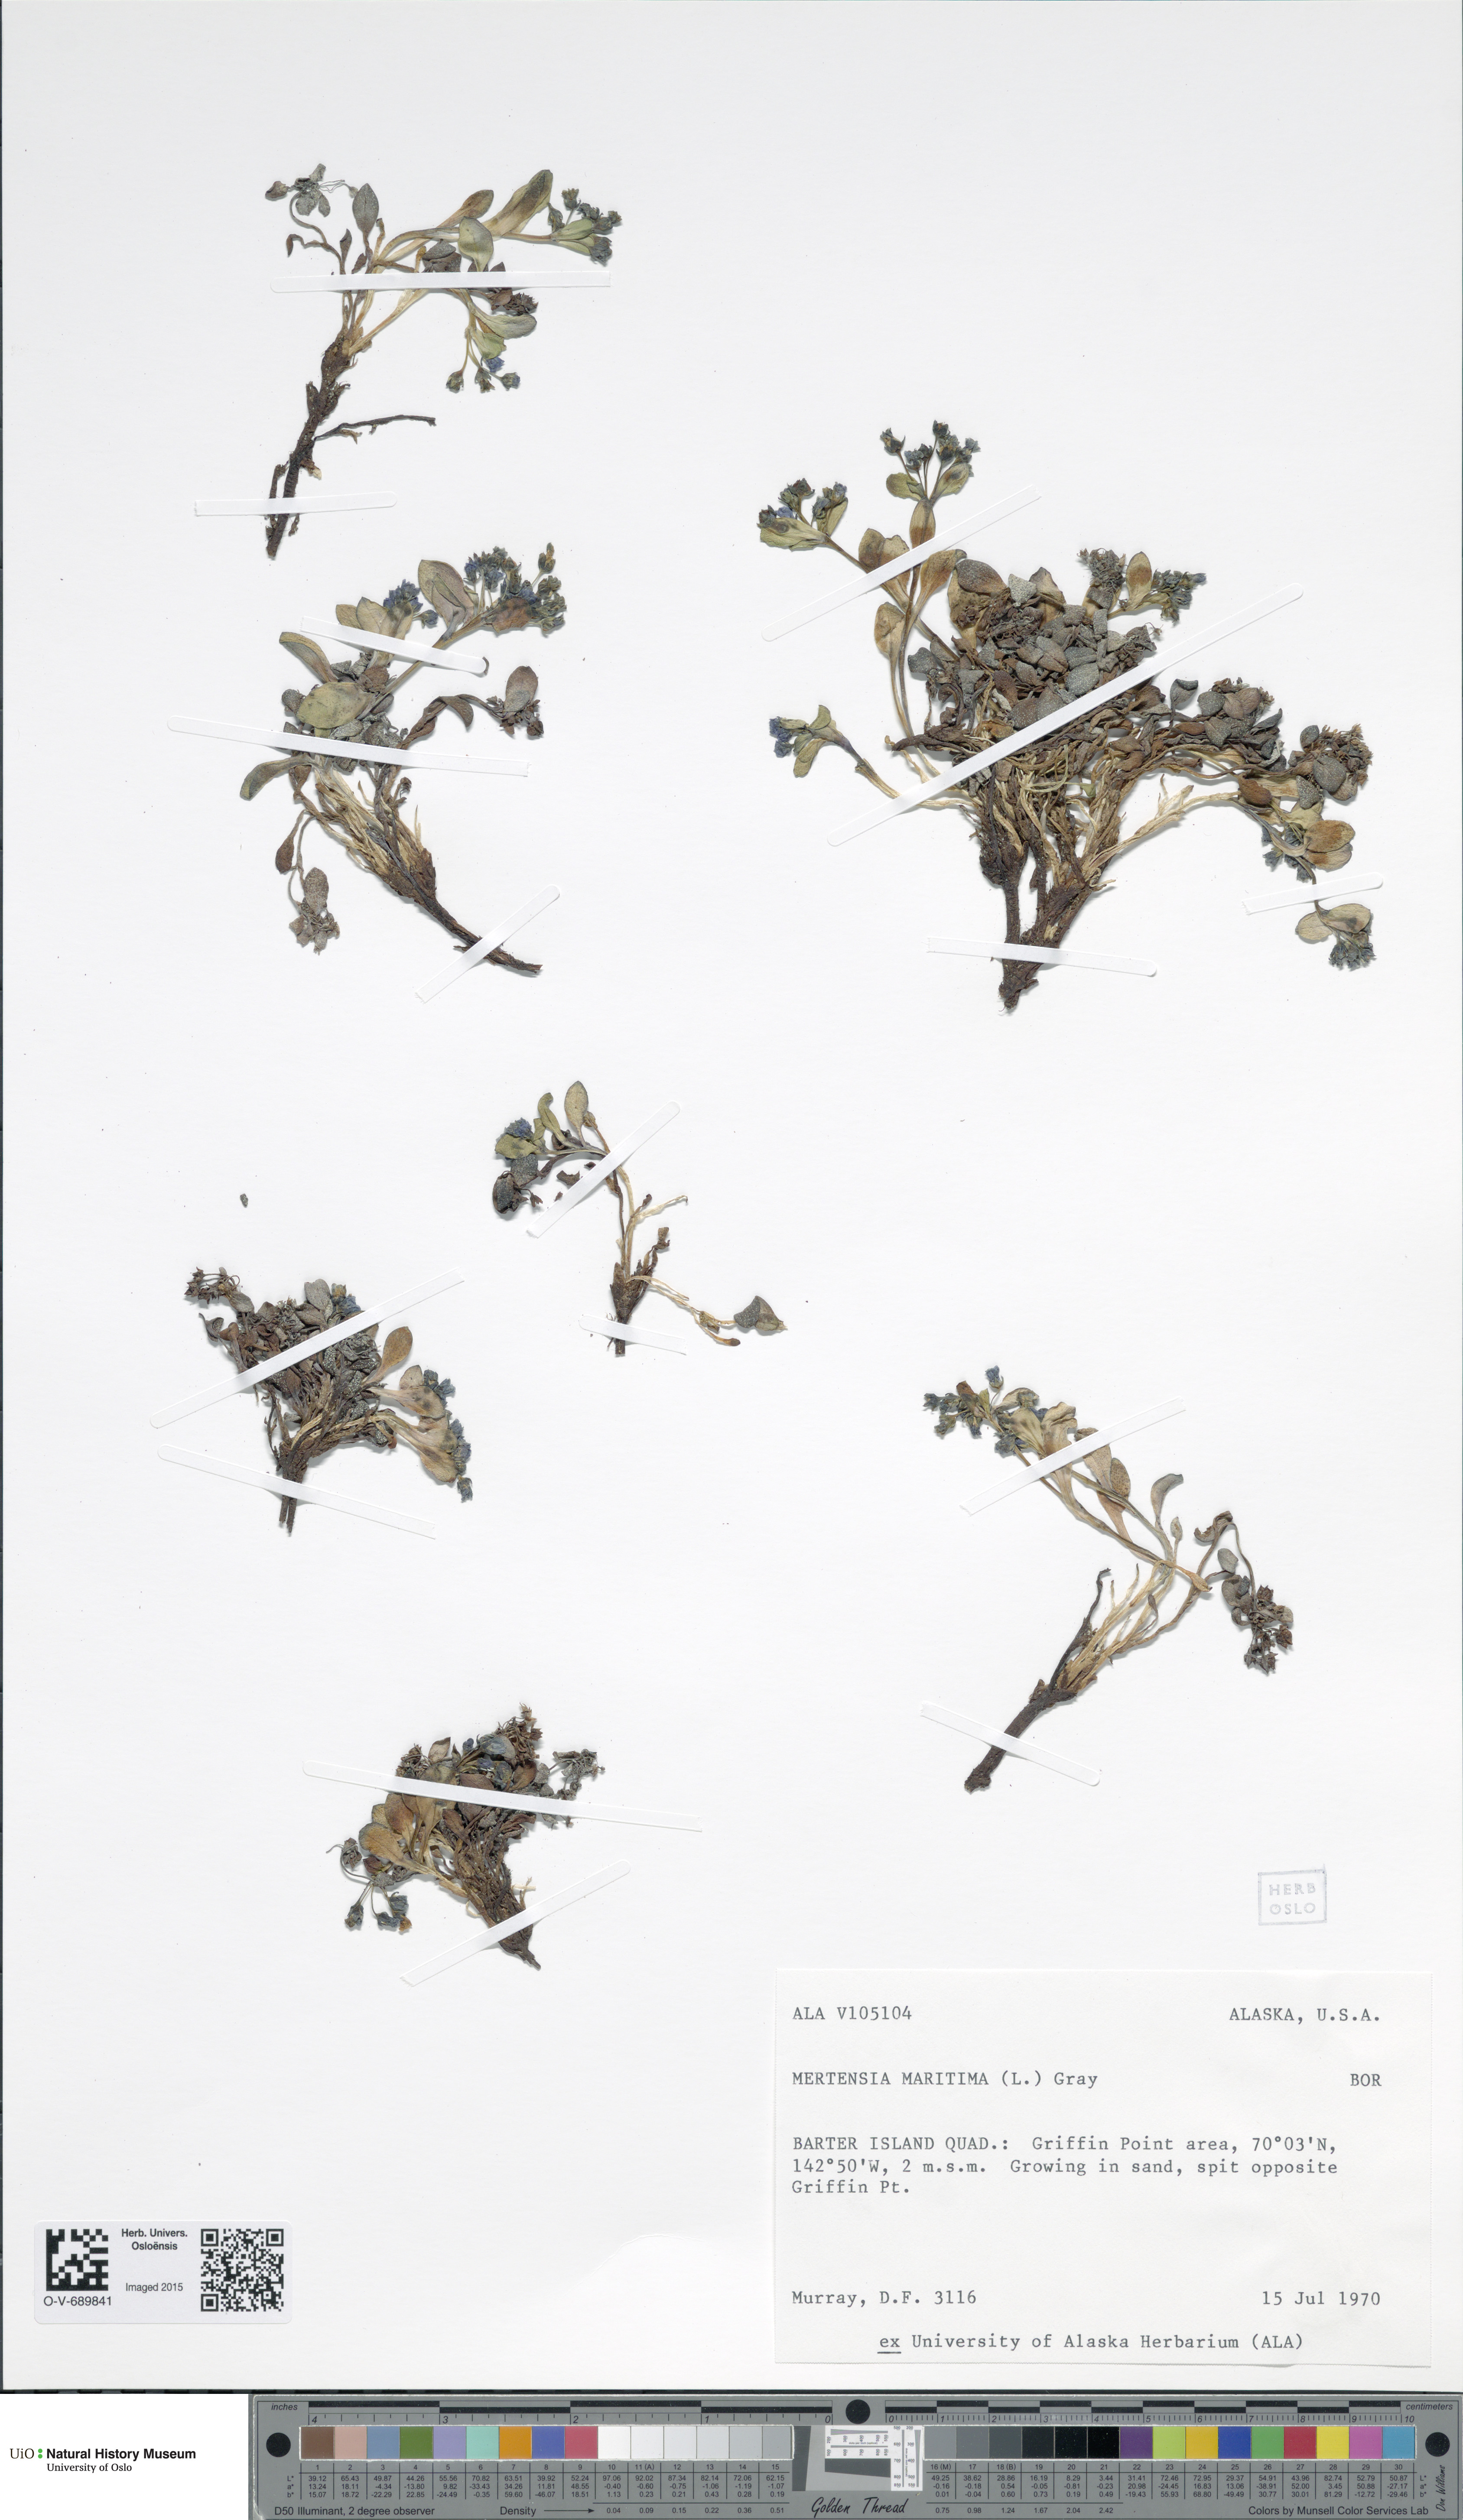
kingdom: Plantae
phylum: Tracheophyta
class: Magnoliopsida
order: Boraginales
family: Boraginaceae
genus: Mertensia
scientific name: Mertensia maritima
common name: Oysterplant
